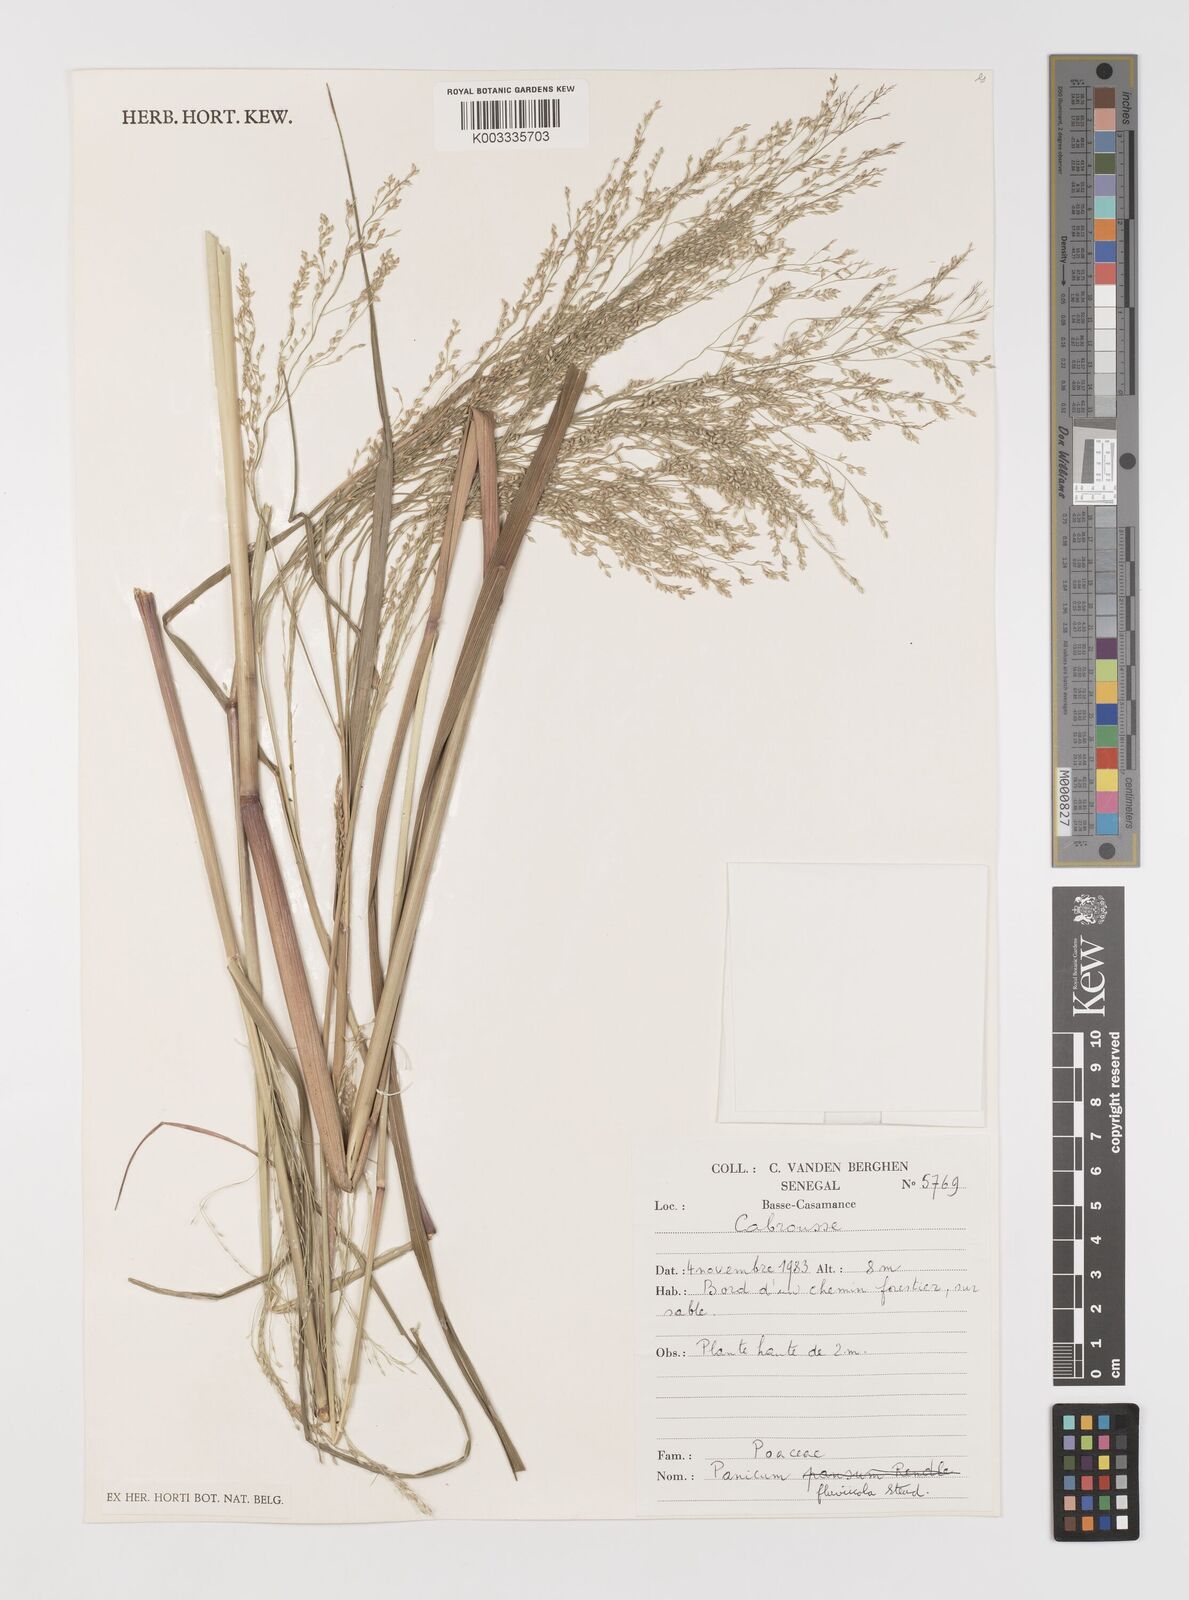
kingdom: Plantae
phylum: Tracheophyta
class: Liliopsida
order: Poales
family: Poaceae
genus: Panicum
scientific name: Panicum fluviicola
